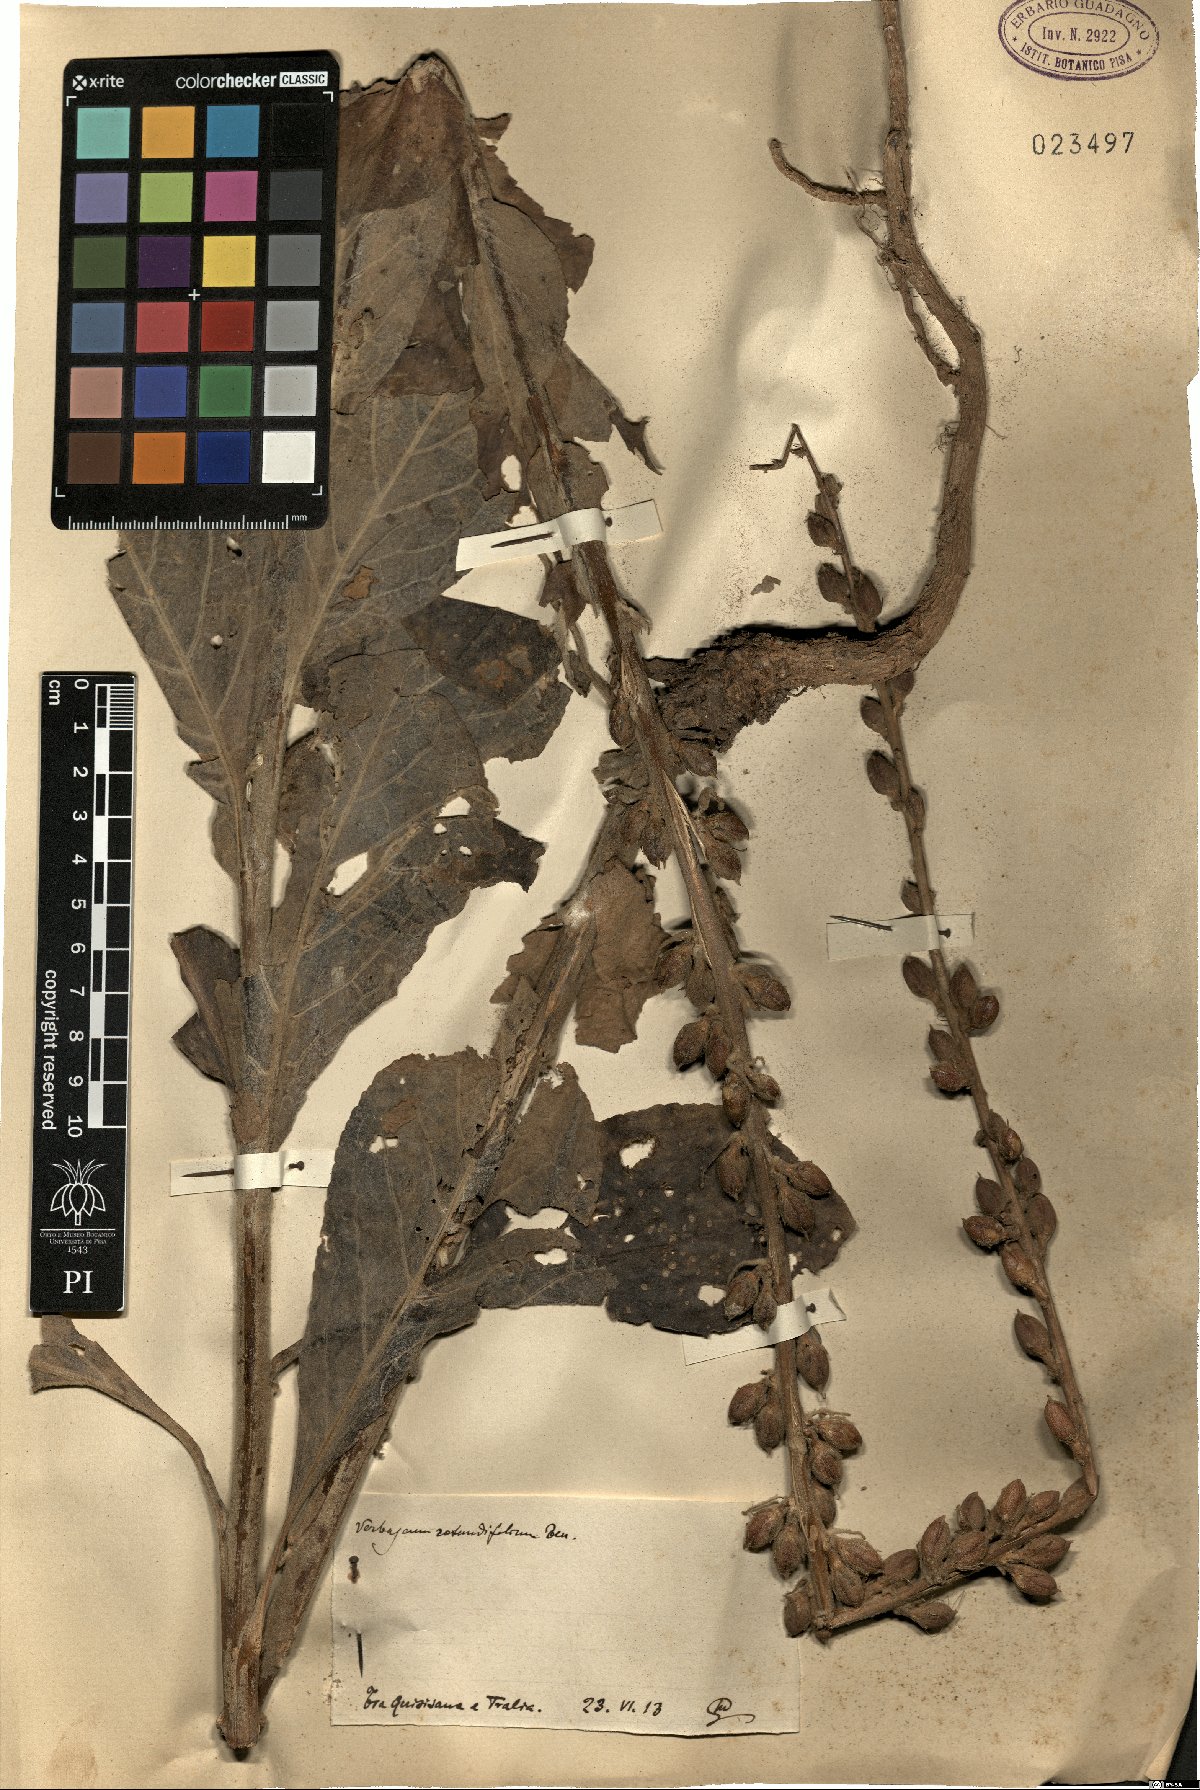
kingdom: Plantae
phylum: Tracheophyta
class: Magnoliopsida
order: Lamiales
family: Scrophulariaceae
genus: Verbascum
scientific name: Verbascum rotundifolium
